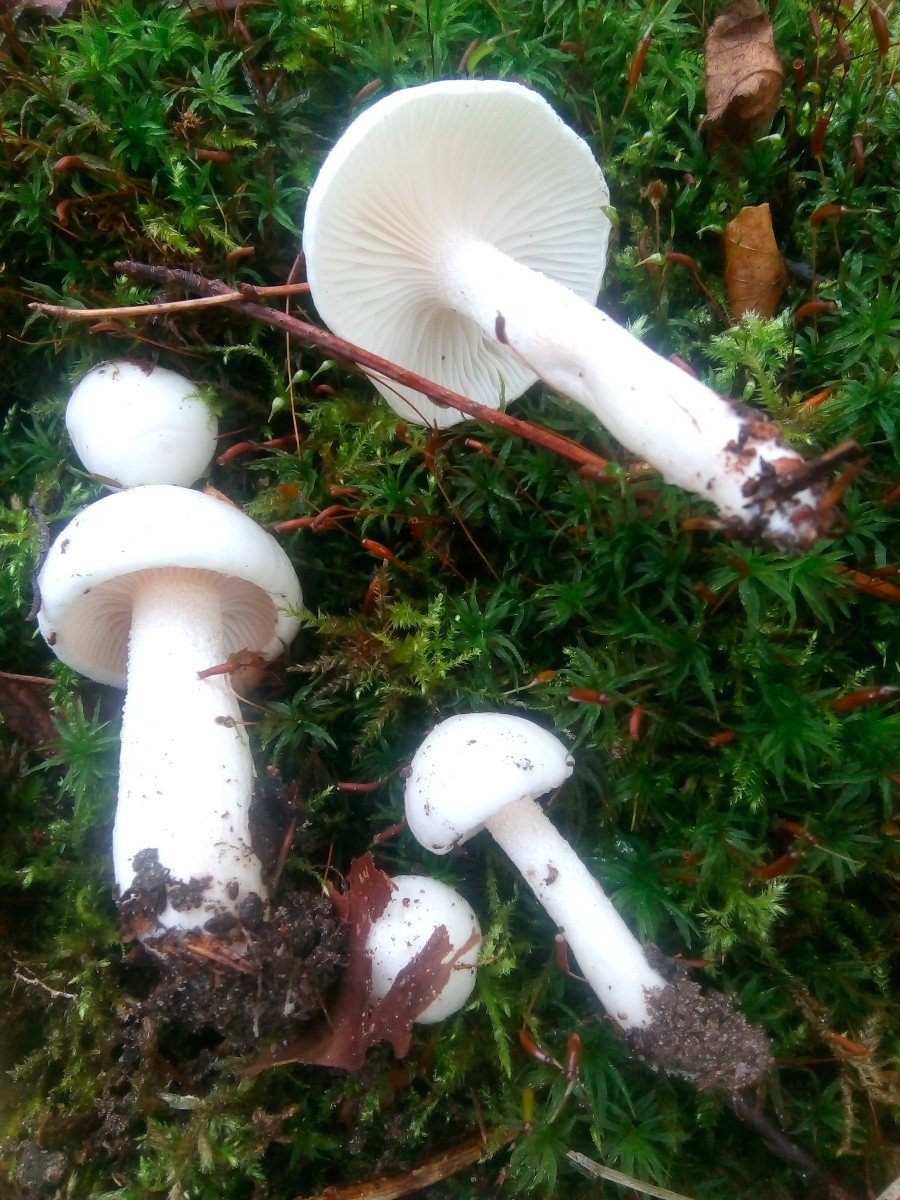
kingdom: Fungi
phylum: Basidiomycota
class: Agaricomycetes
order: Agaricales
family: Hygrophoraceae
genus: Hygrophorus
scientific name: Hygrophorus eburneus
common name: elfenbens-sneglehat
